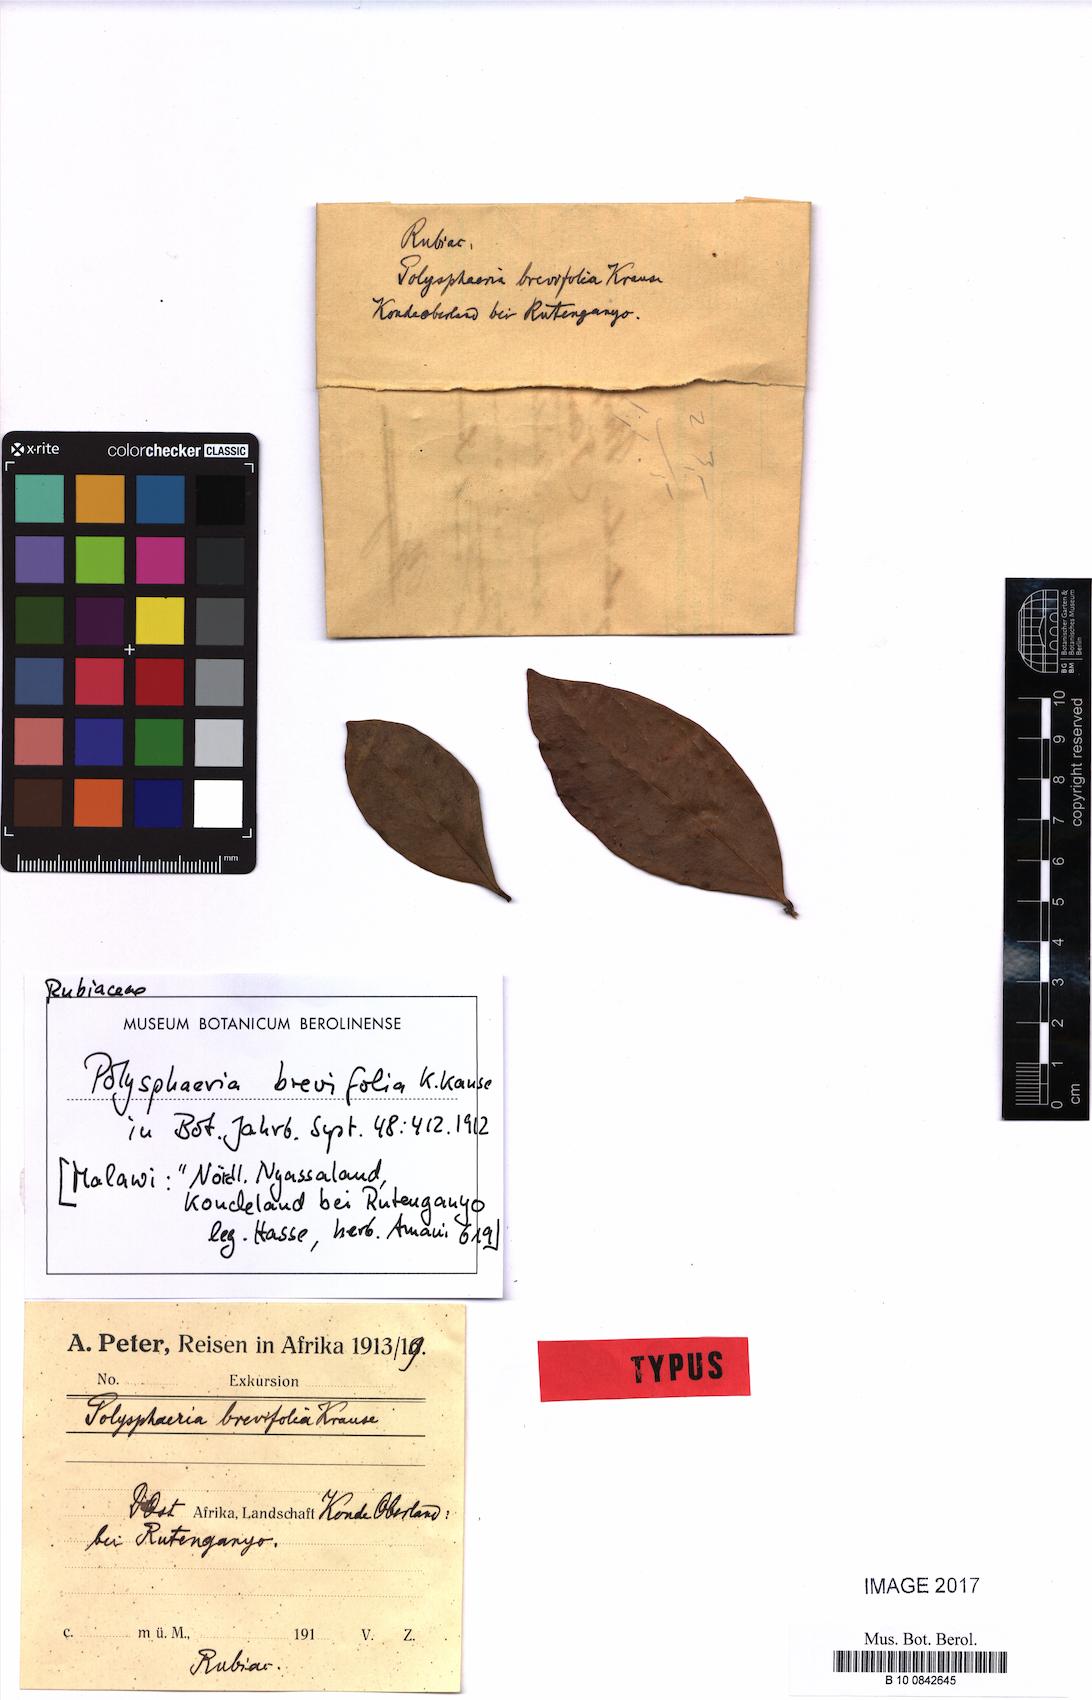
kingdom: Plantae
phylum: Tracheophyta
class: Magnoliopsida
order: Gentianales
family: Rubiaceae
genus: Tricalysia
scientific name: Tricalysia coriacea
